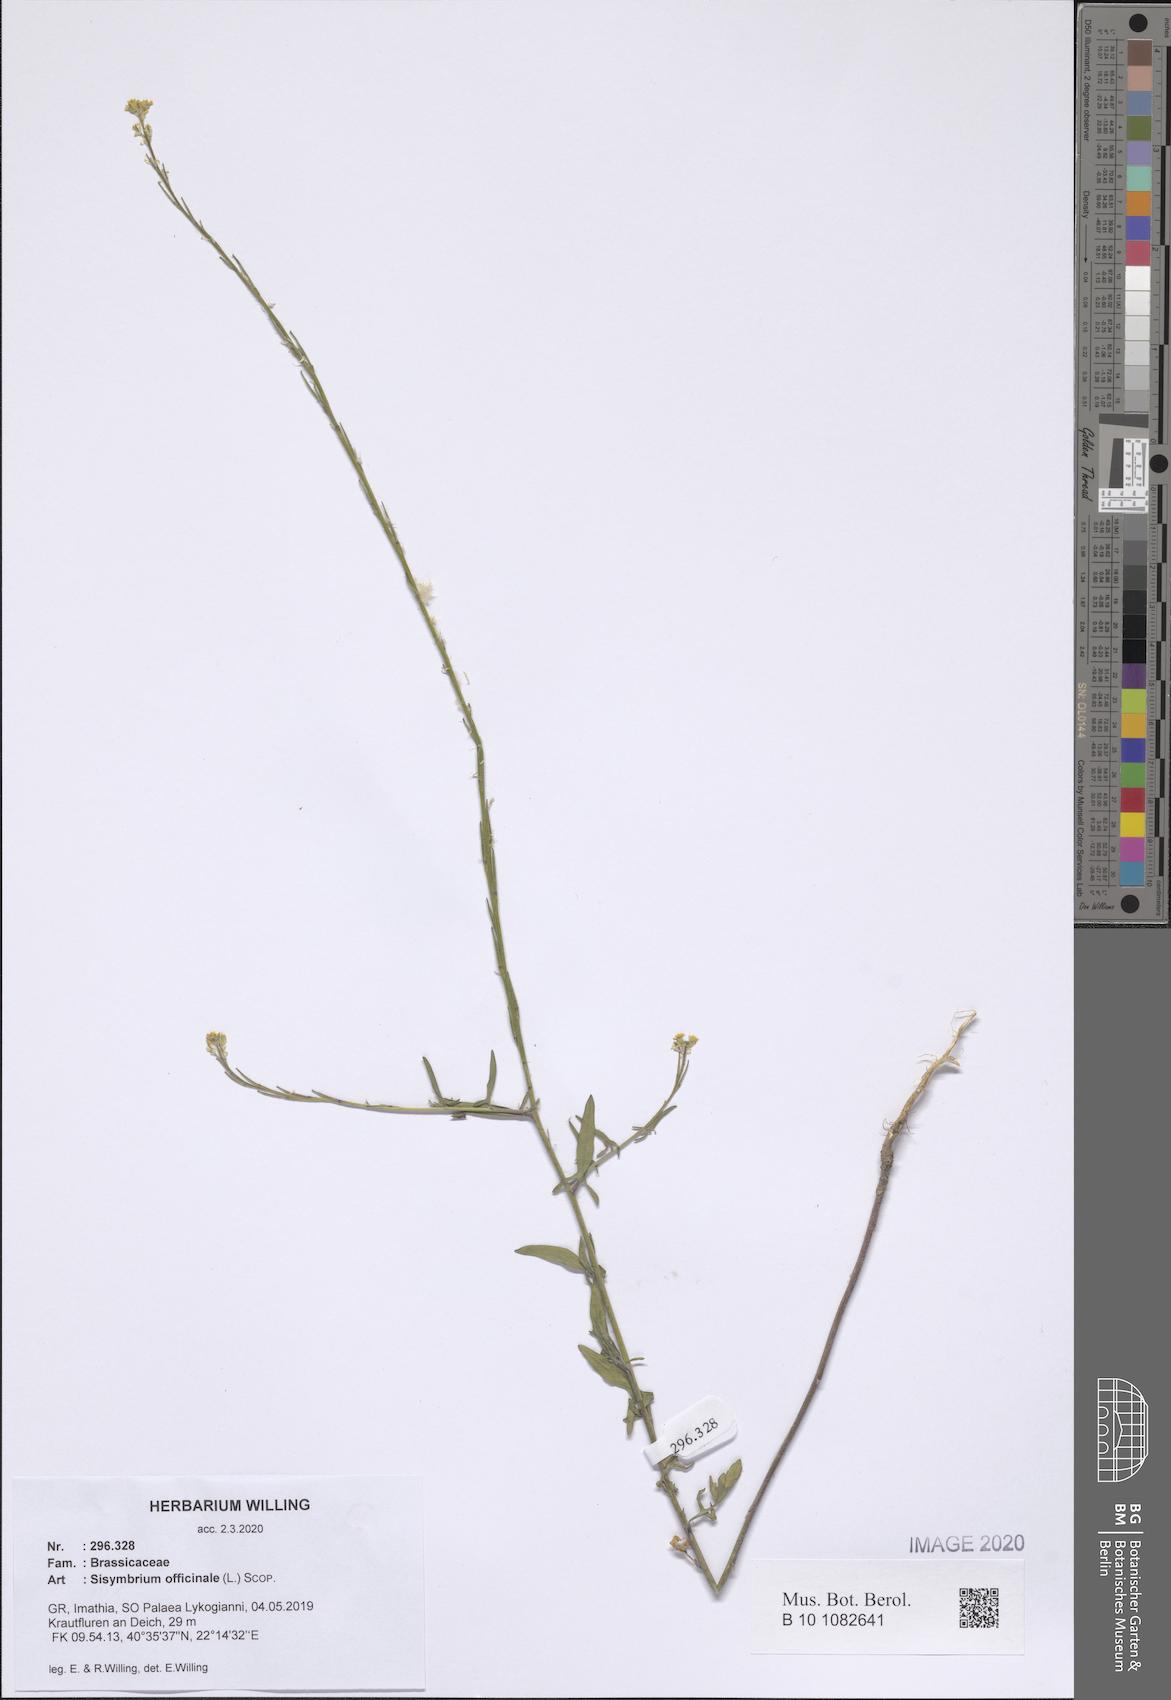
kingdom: Plantae
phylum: Tracheophyta
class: Magnoliopsida
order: Brassicales
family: Brassicaceae
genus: Sisymbrium
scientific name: Sisymbrium officinale
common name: Hedge mustard
